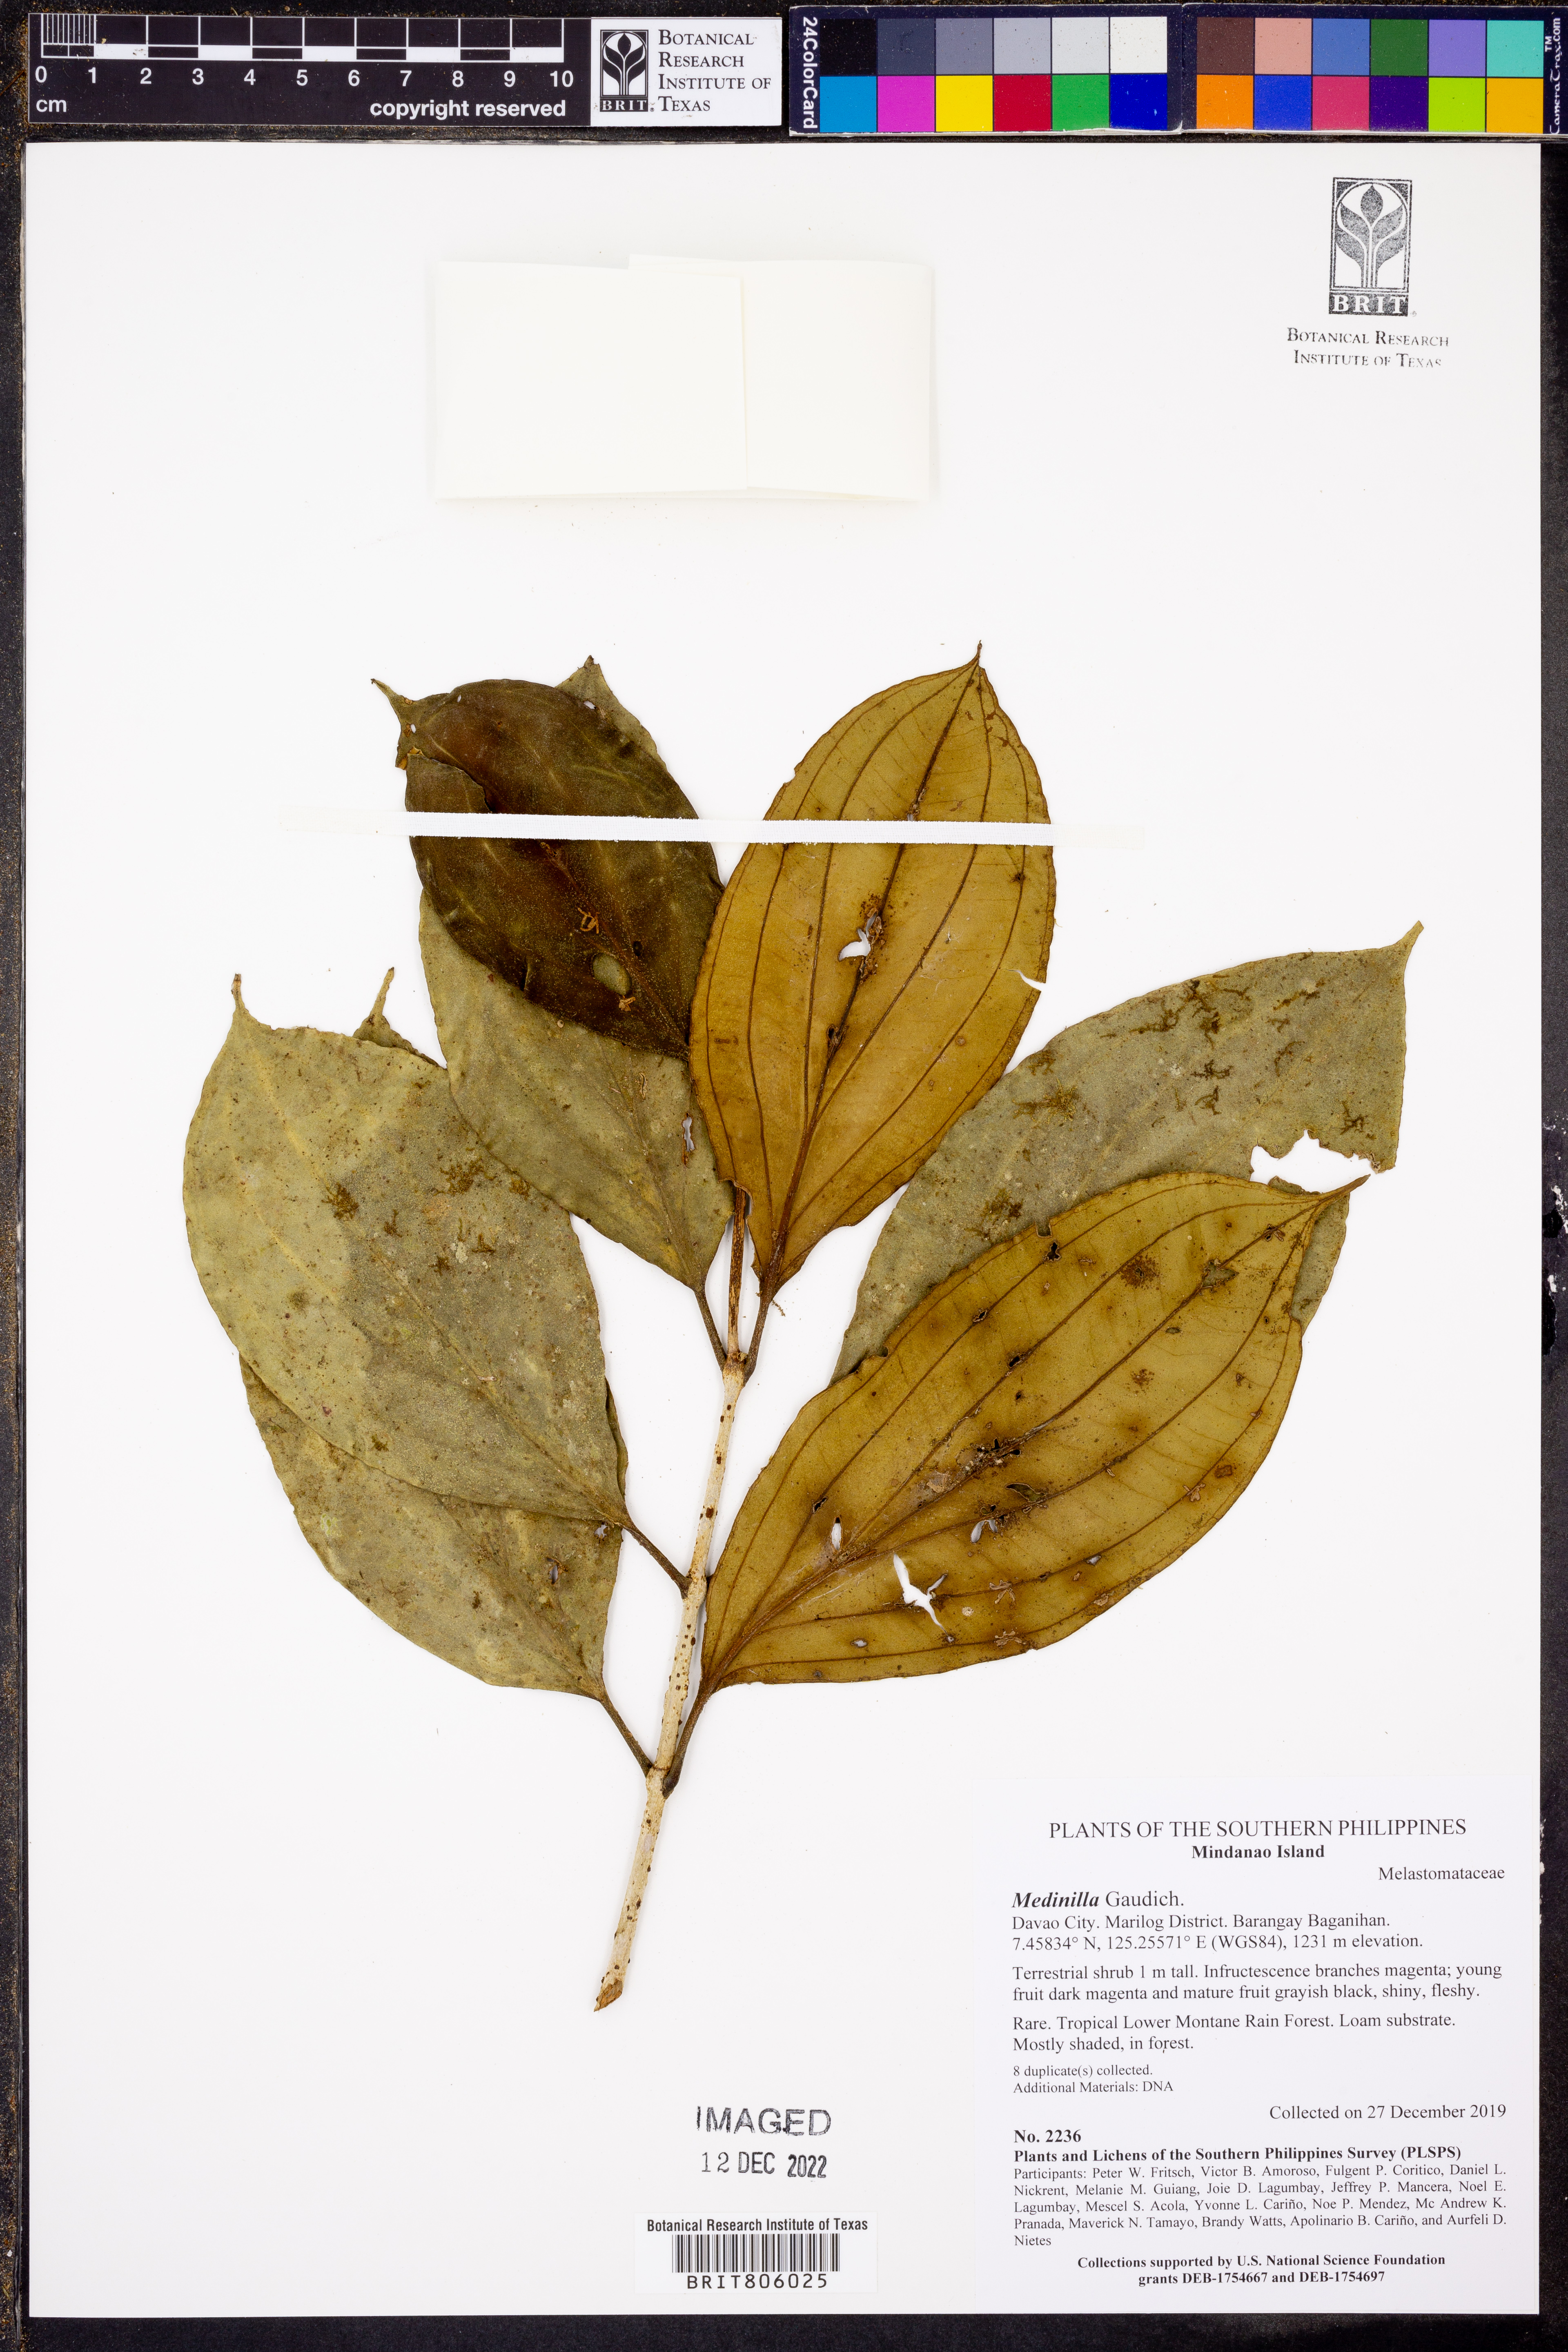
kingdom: Plantae
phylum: Tracheophyta
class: Magnoliopsida
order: Myrtales
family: Melastomataceae
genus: Medinilla
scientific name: Medinilla
